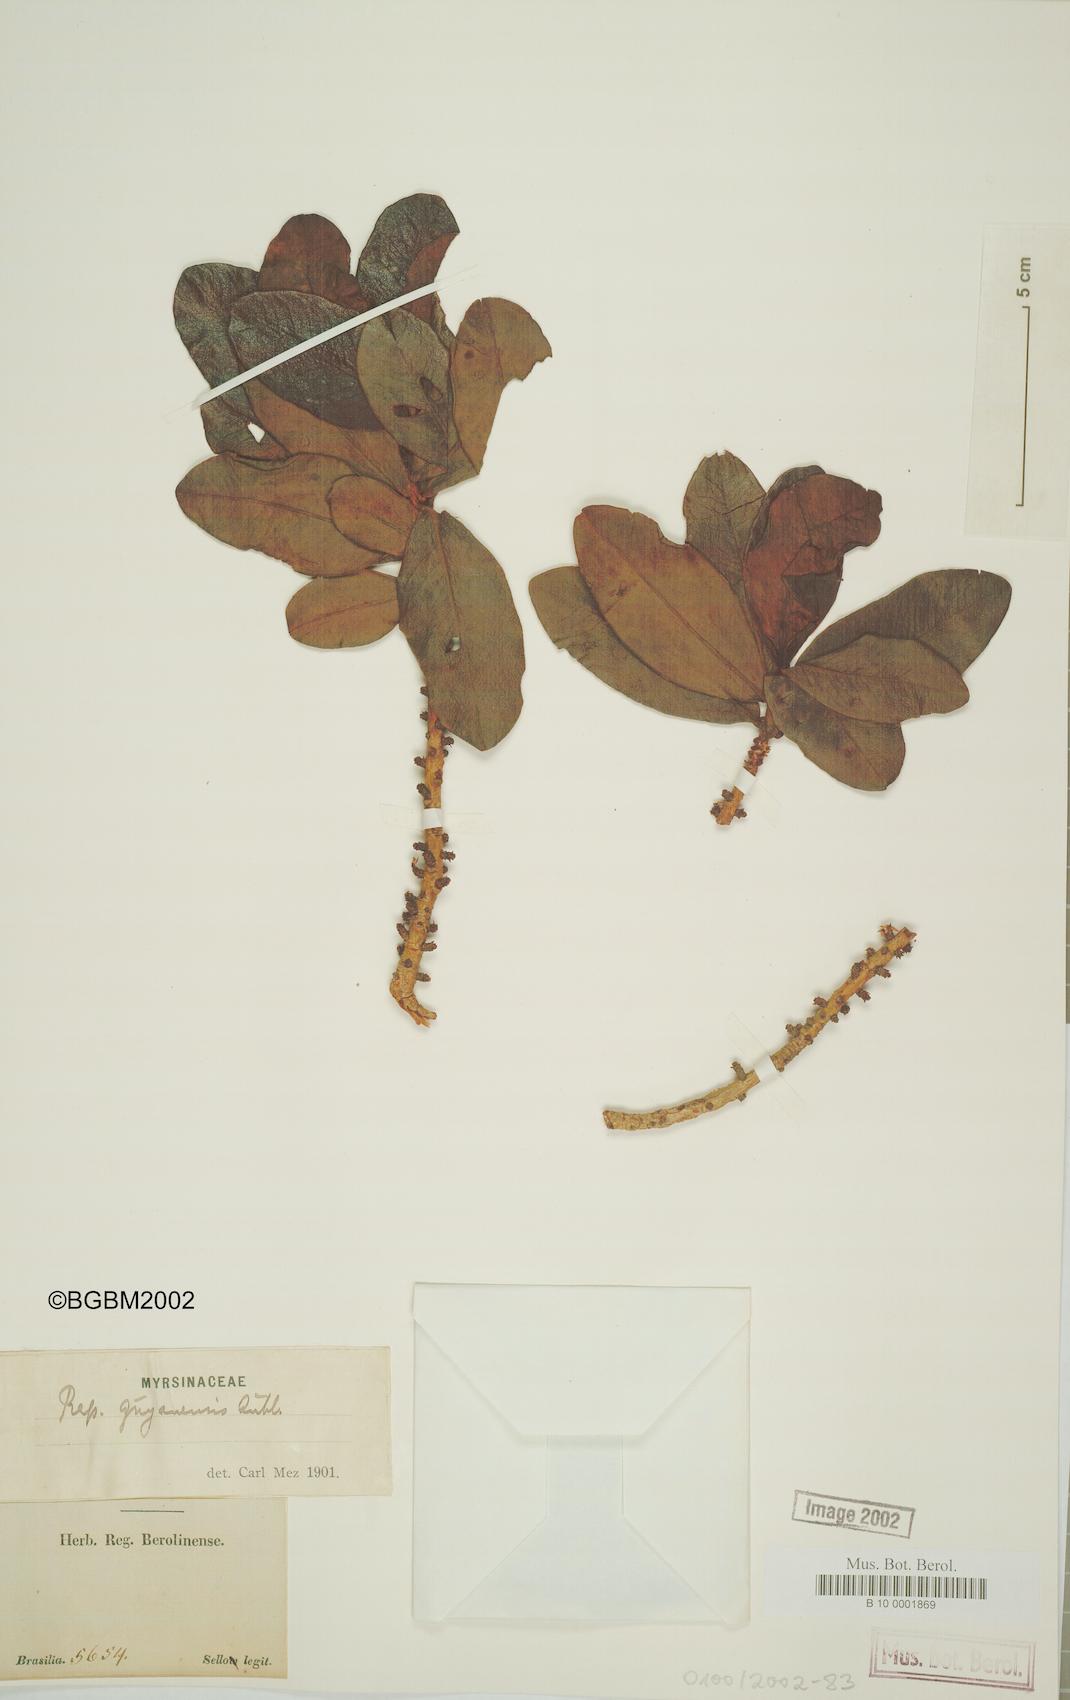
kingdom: Plantae
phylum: Tracheophyta
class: Magnoliopsida
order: Ericales
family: Primulaceae
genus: Myrsine
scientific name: Myrsine guianensis
